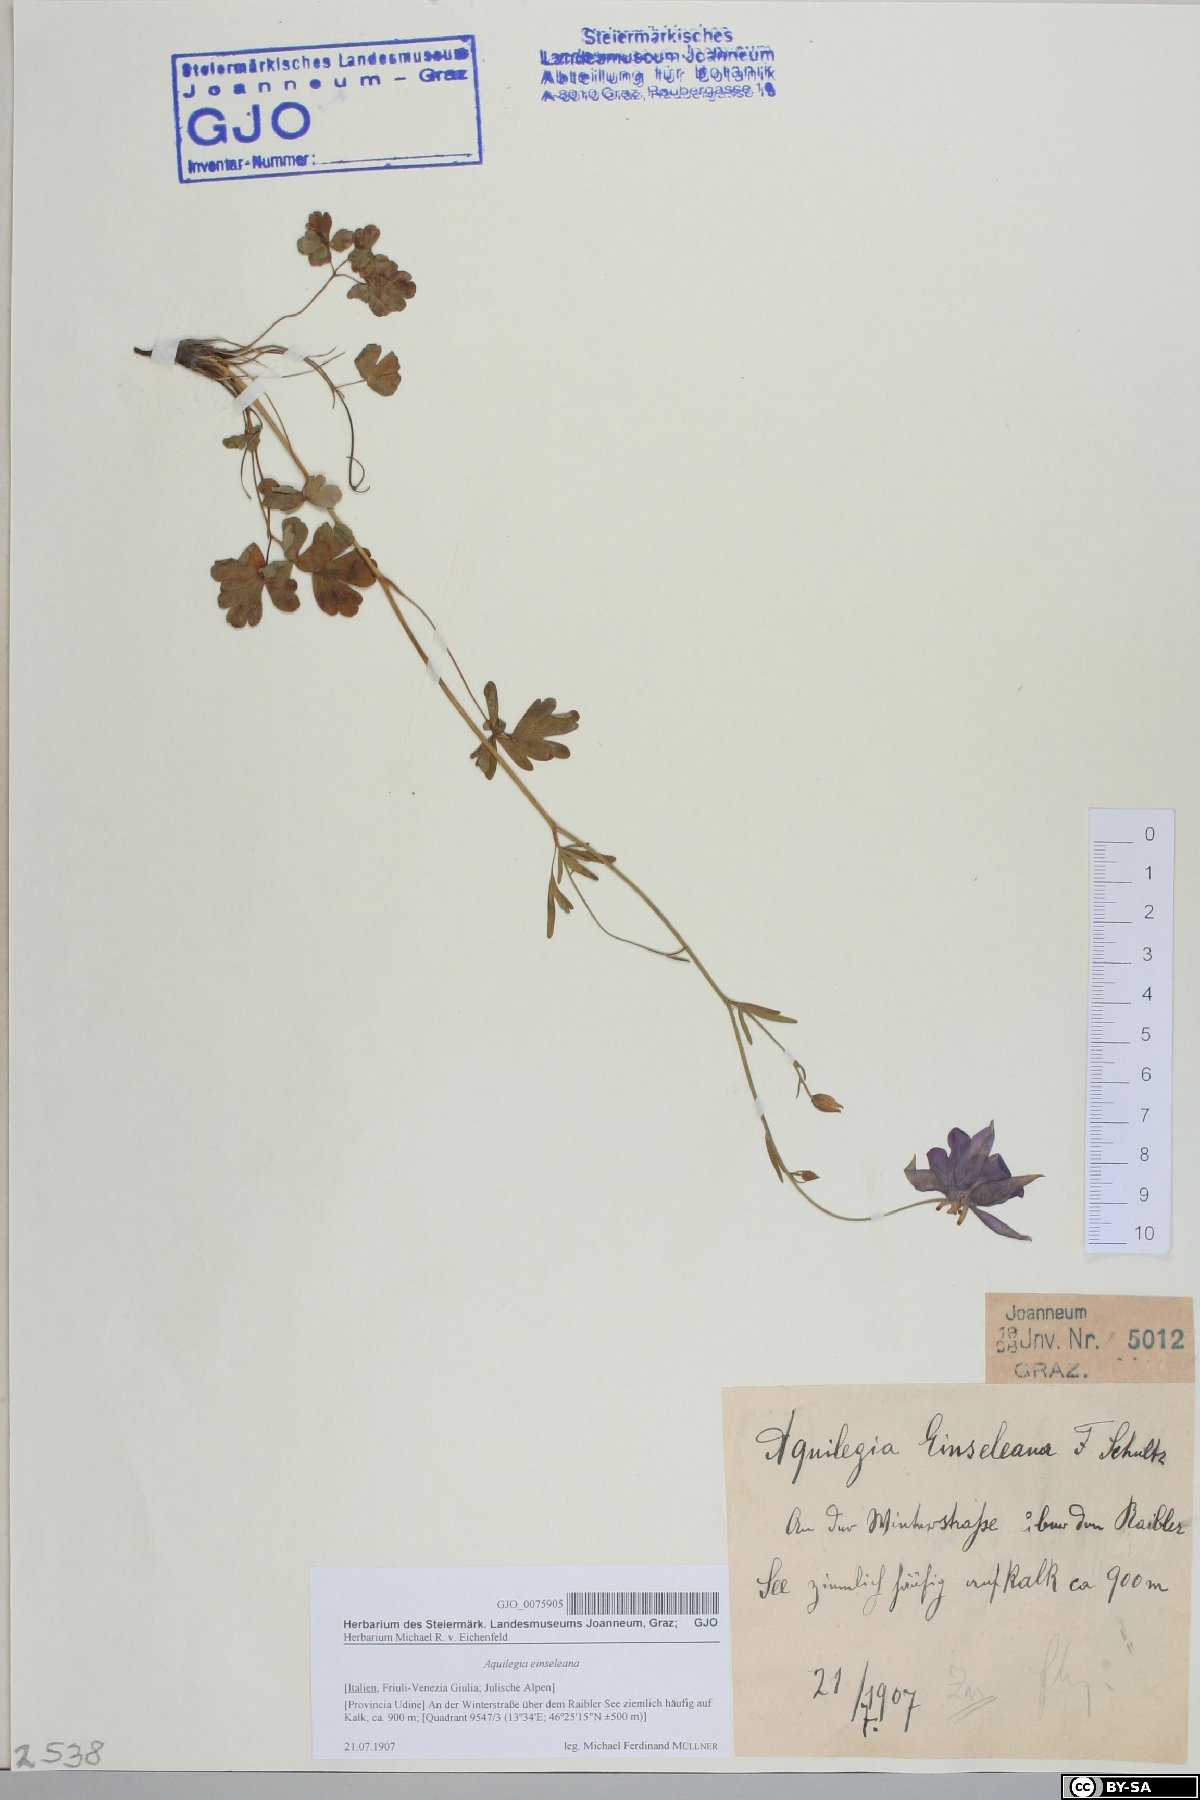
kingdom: Plantae
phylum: Tracheophyta
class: Magnoliopsida
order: Ranunculales
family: Ranunculaceae
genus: Aquilegia
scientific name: Aquilegia einseleana
